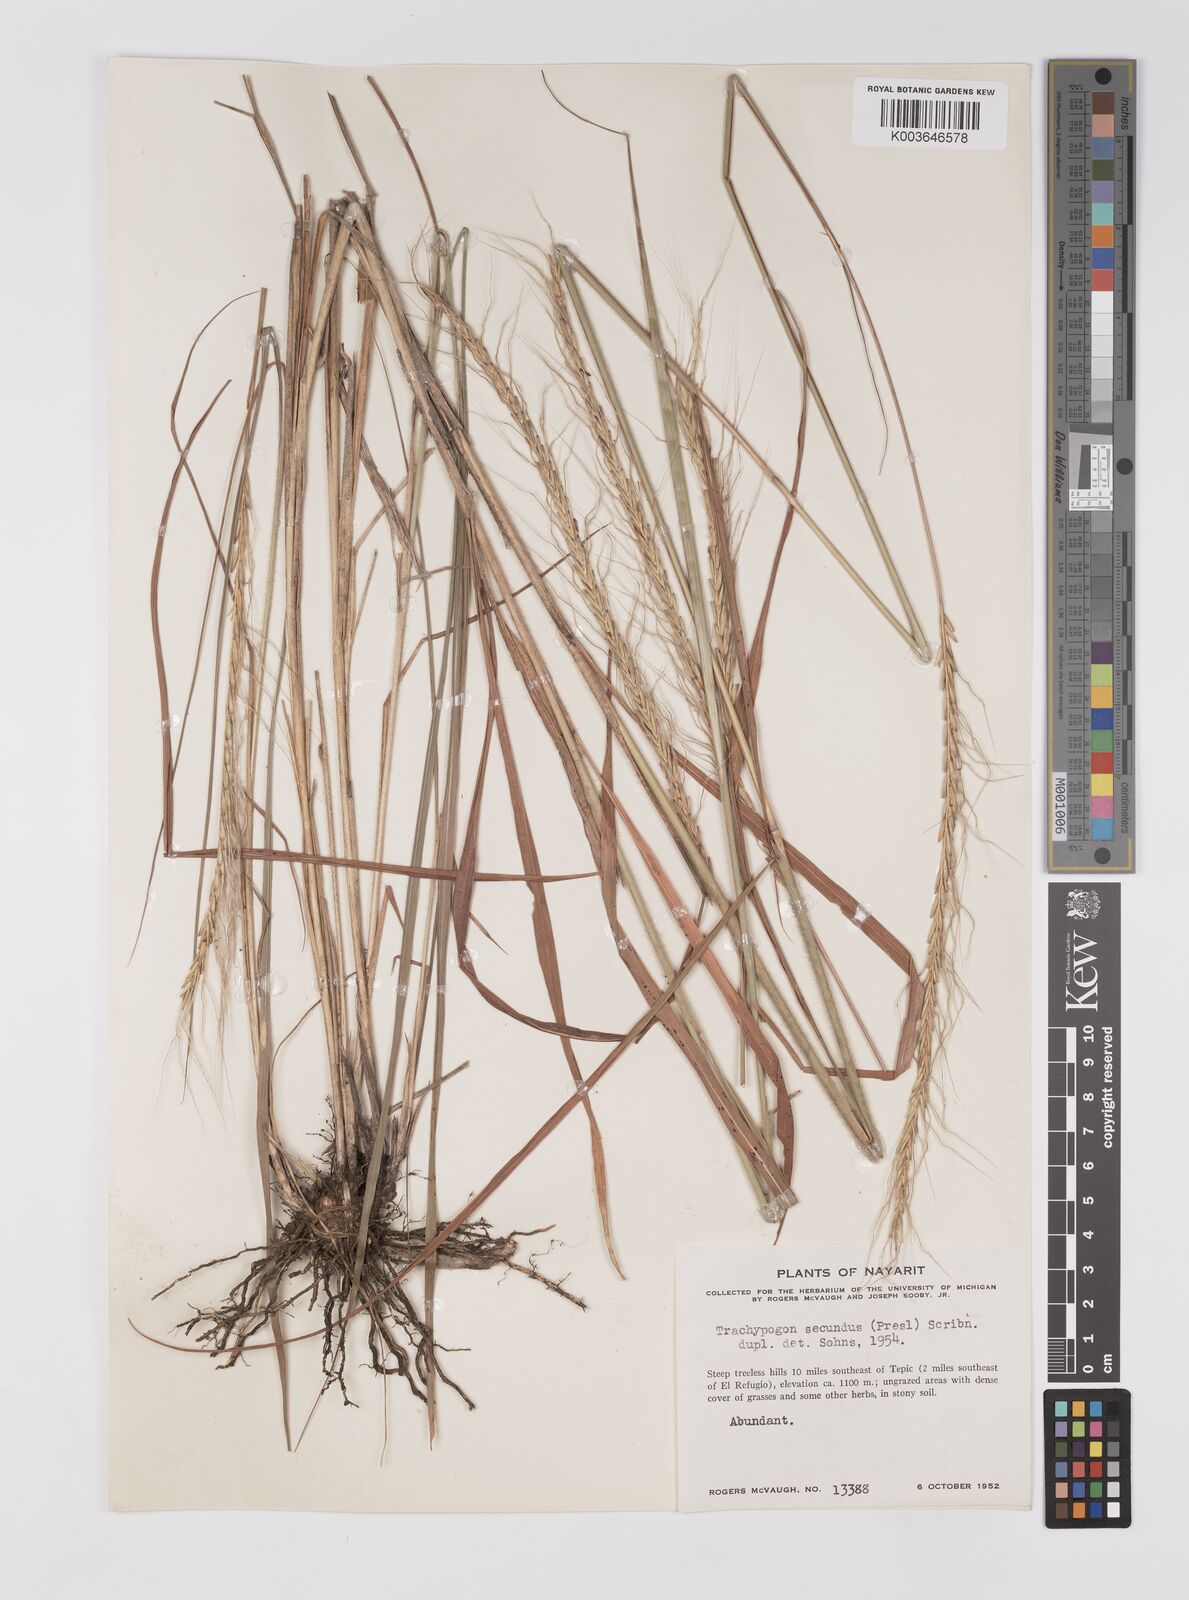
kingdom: Plantae
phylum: Tracheophyta
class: Liliopsida
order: Poales
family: Poaceae
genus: Trachypogon
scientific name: Trachypogon spicatus
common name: Crinkle-awn
